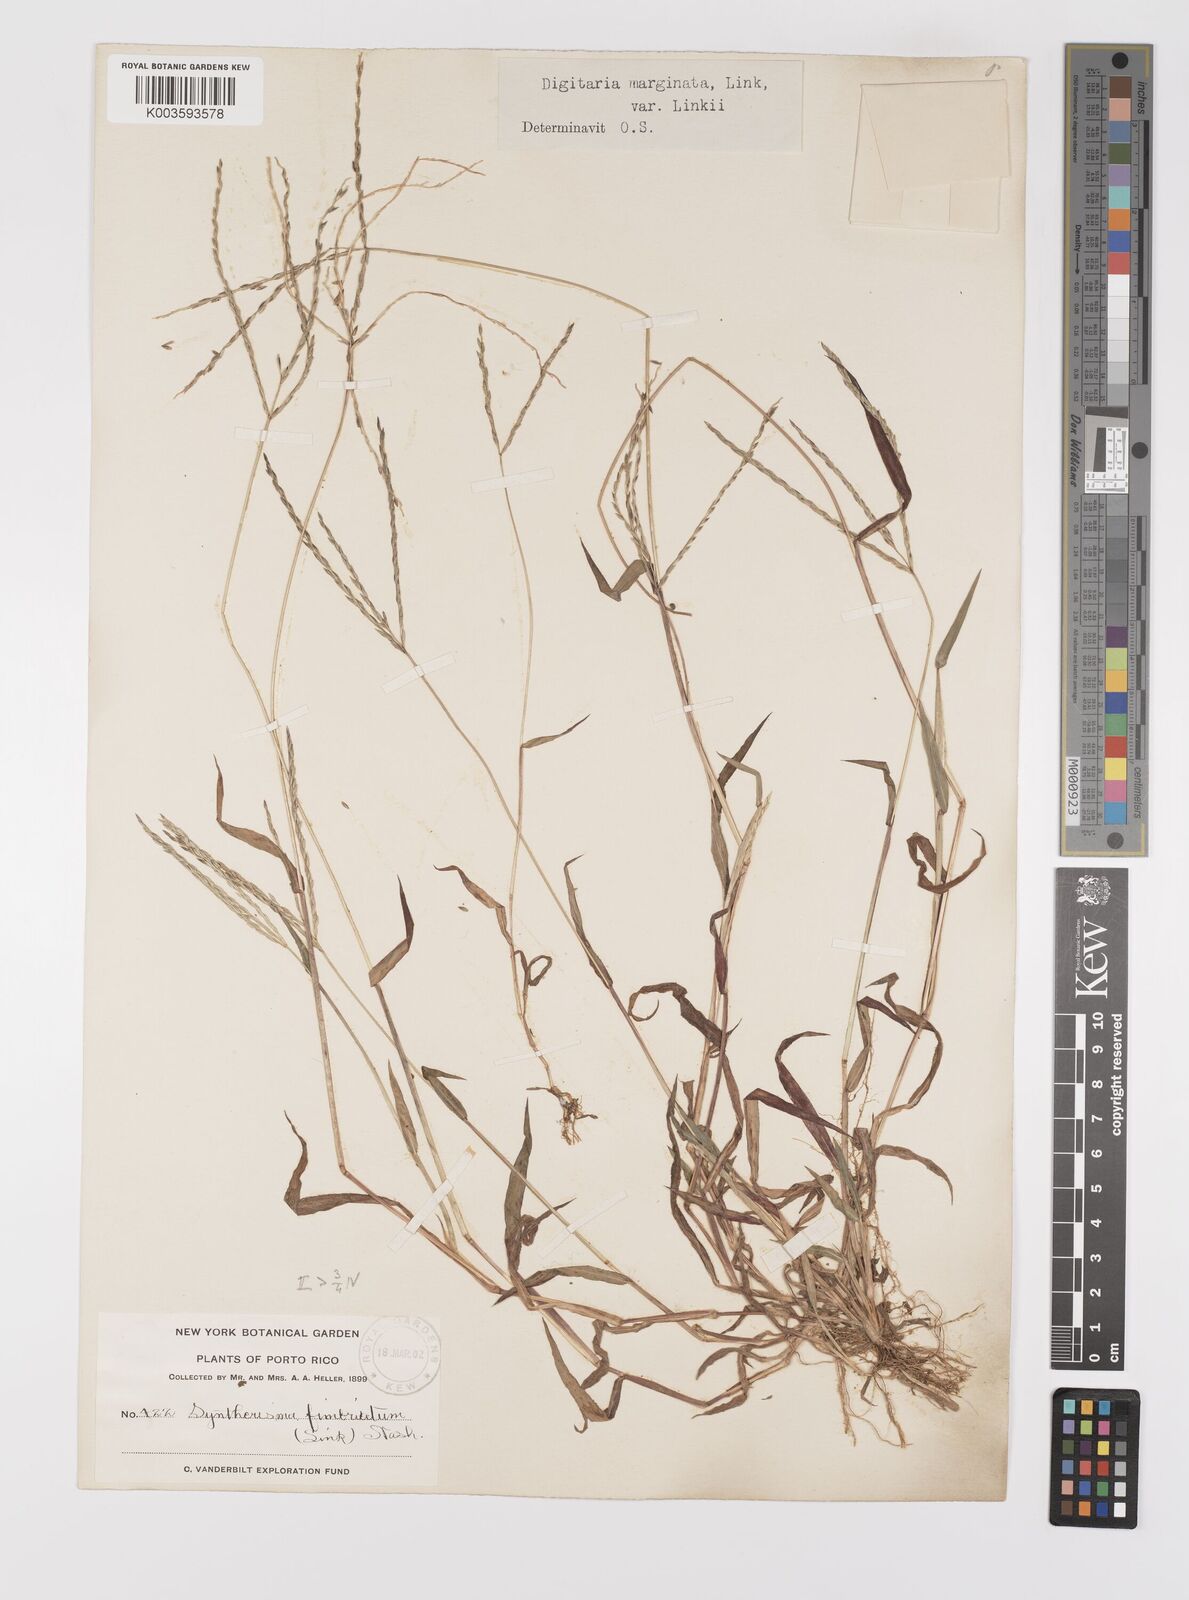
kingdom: Plantae
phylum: Tracheophyta
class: Liliopsida
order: Poales
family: Poaceae
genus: Digitaria
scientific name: Digitaria ciliaris
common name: Tropical finger-grass
